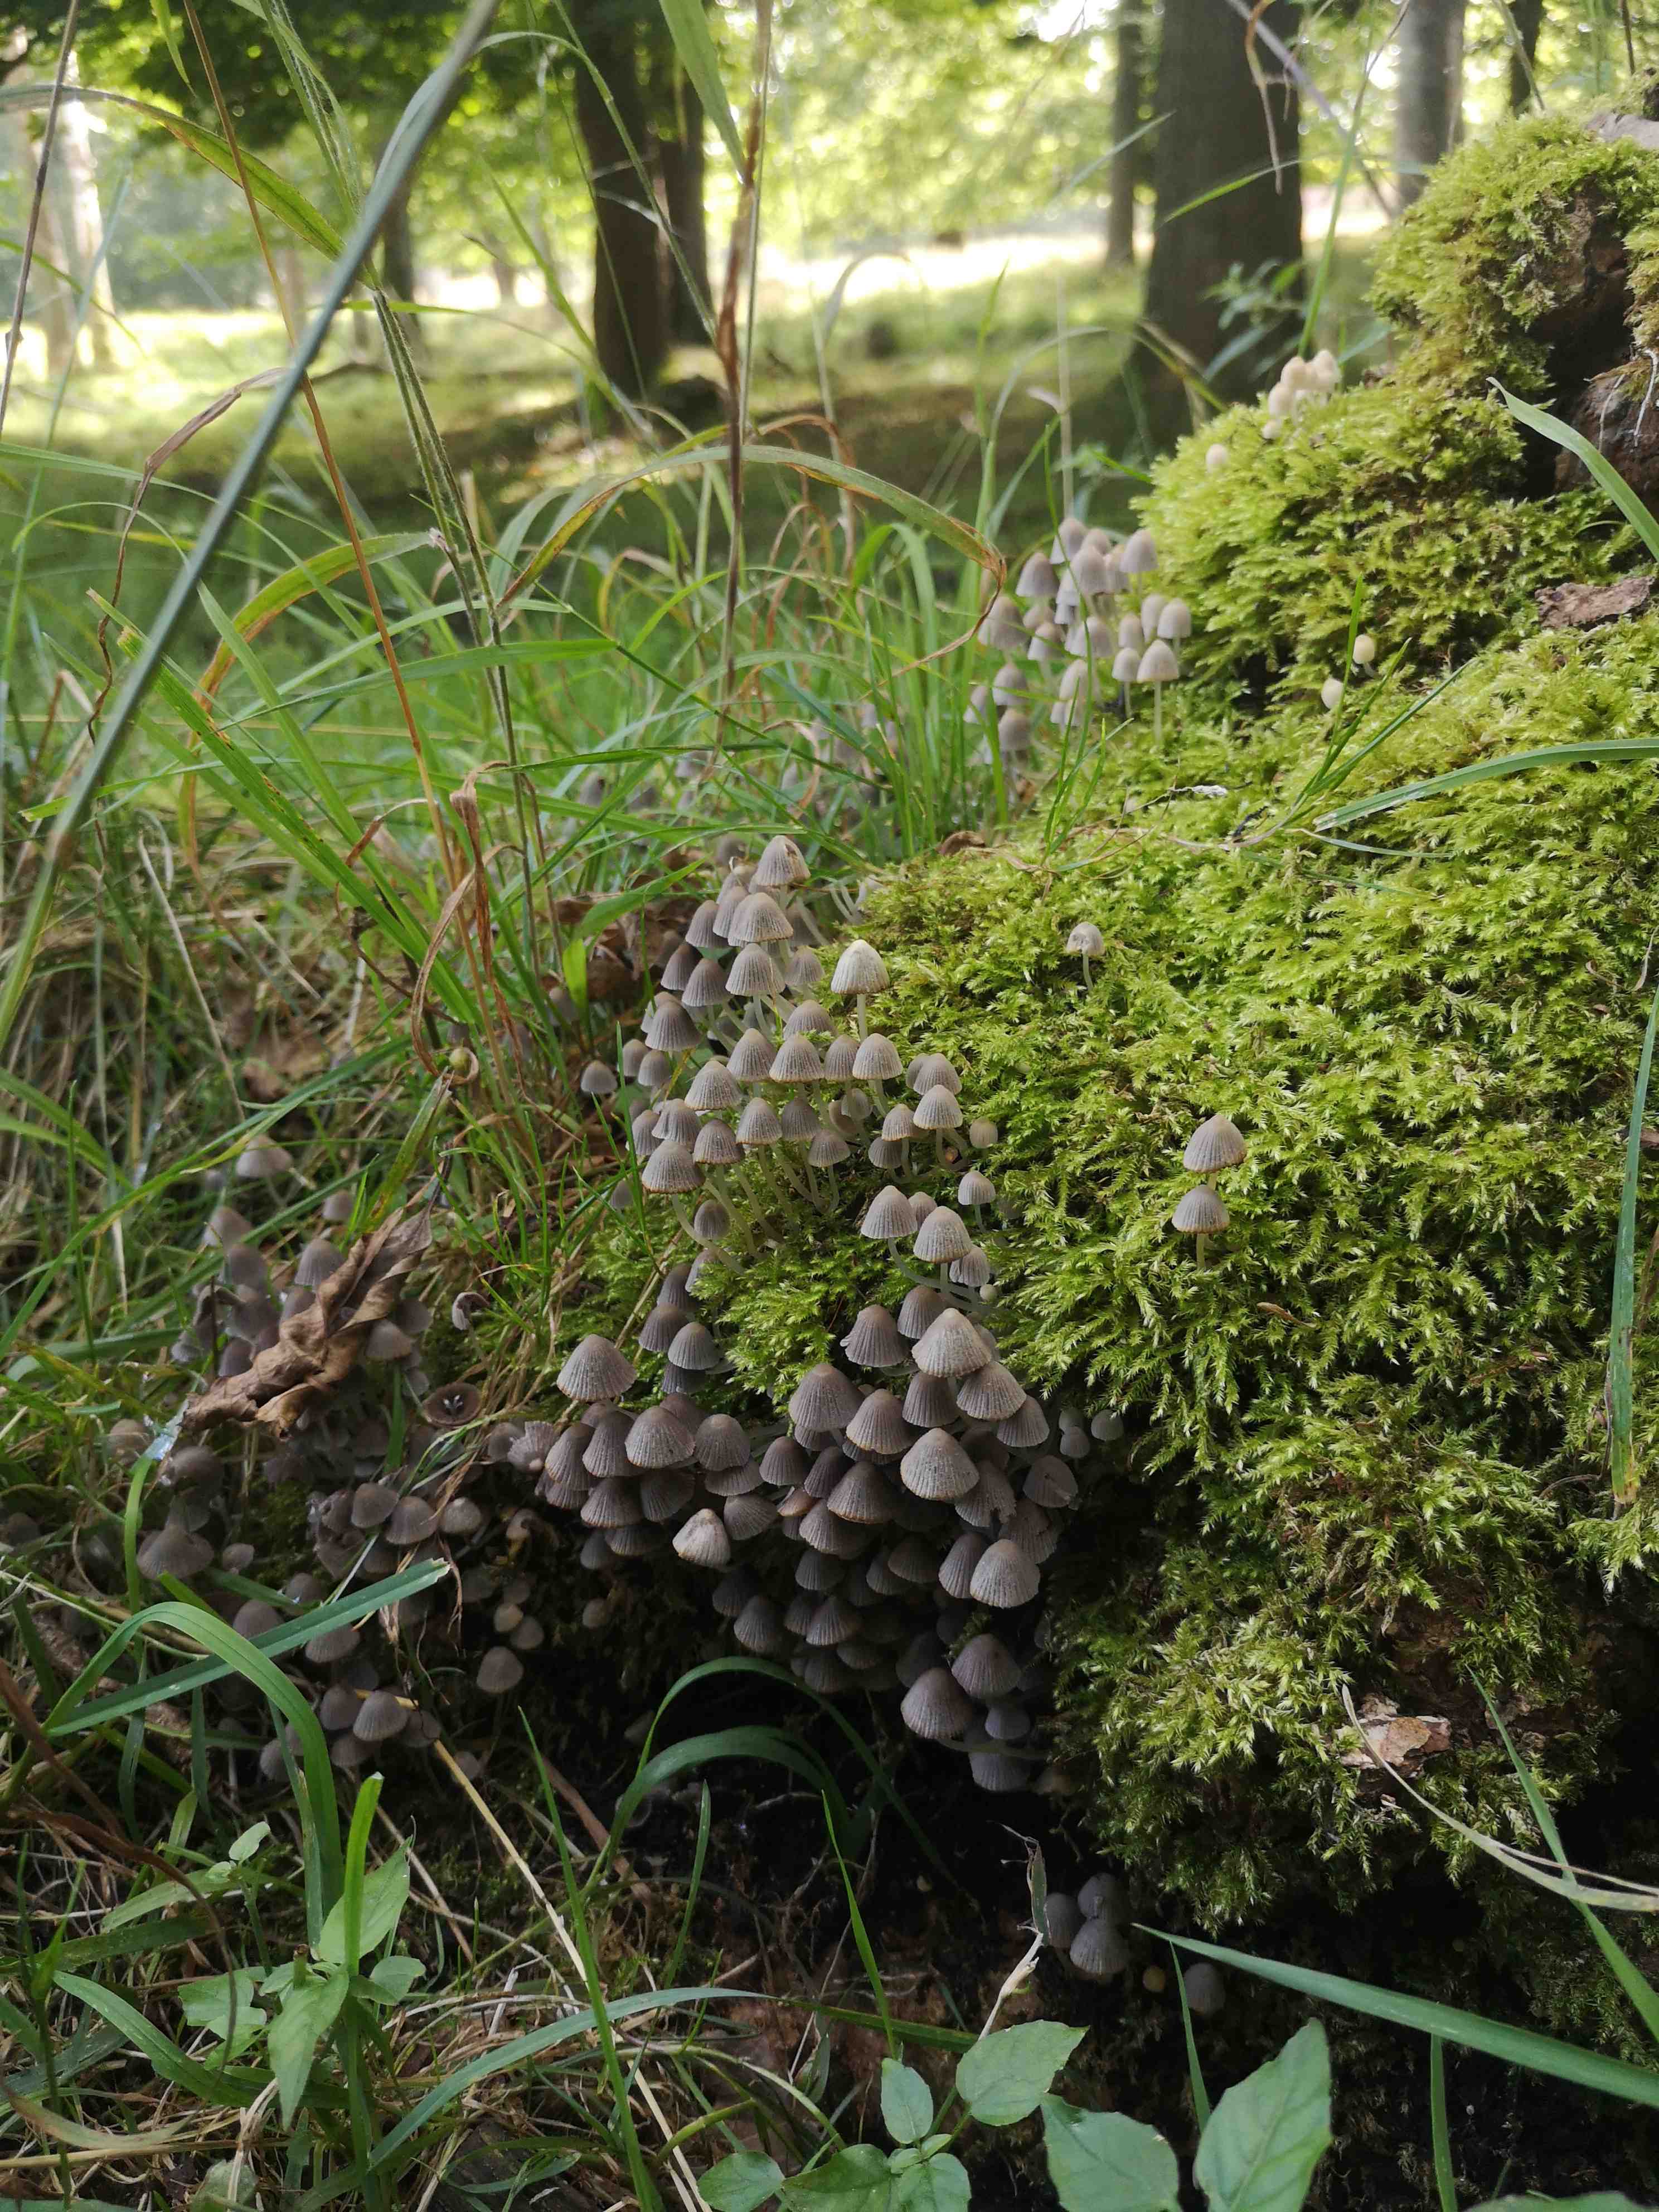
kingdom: Fungi
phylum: Basidiomycota
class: Agaricomycetes
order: Agaricales
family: Psathyrellaceae
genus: Coprinellus
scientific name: Coprinellus disseminatus
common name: bredsået blækhat
